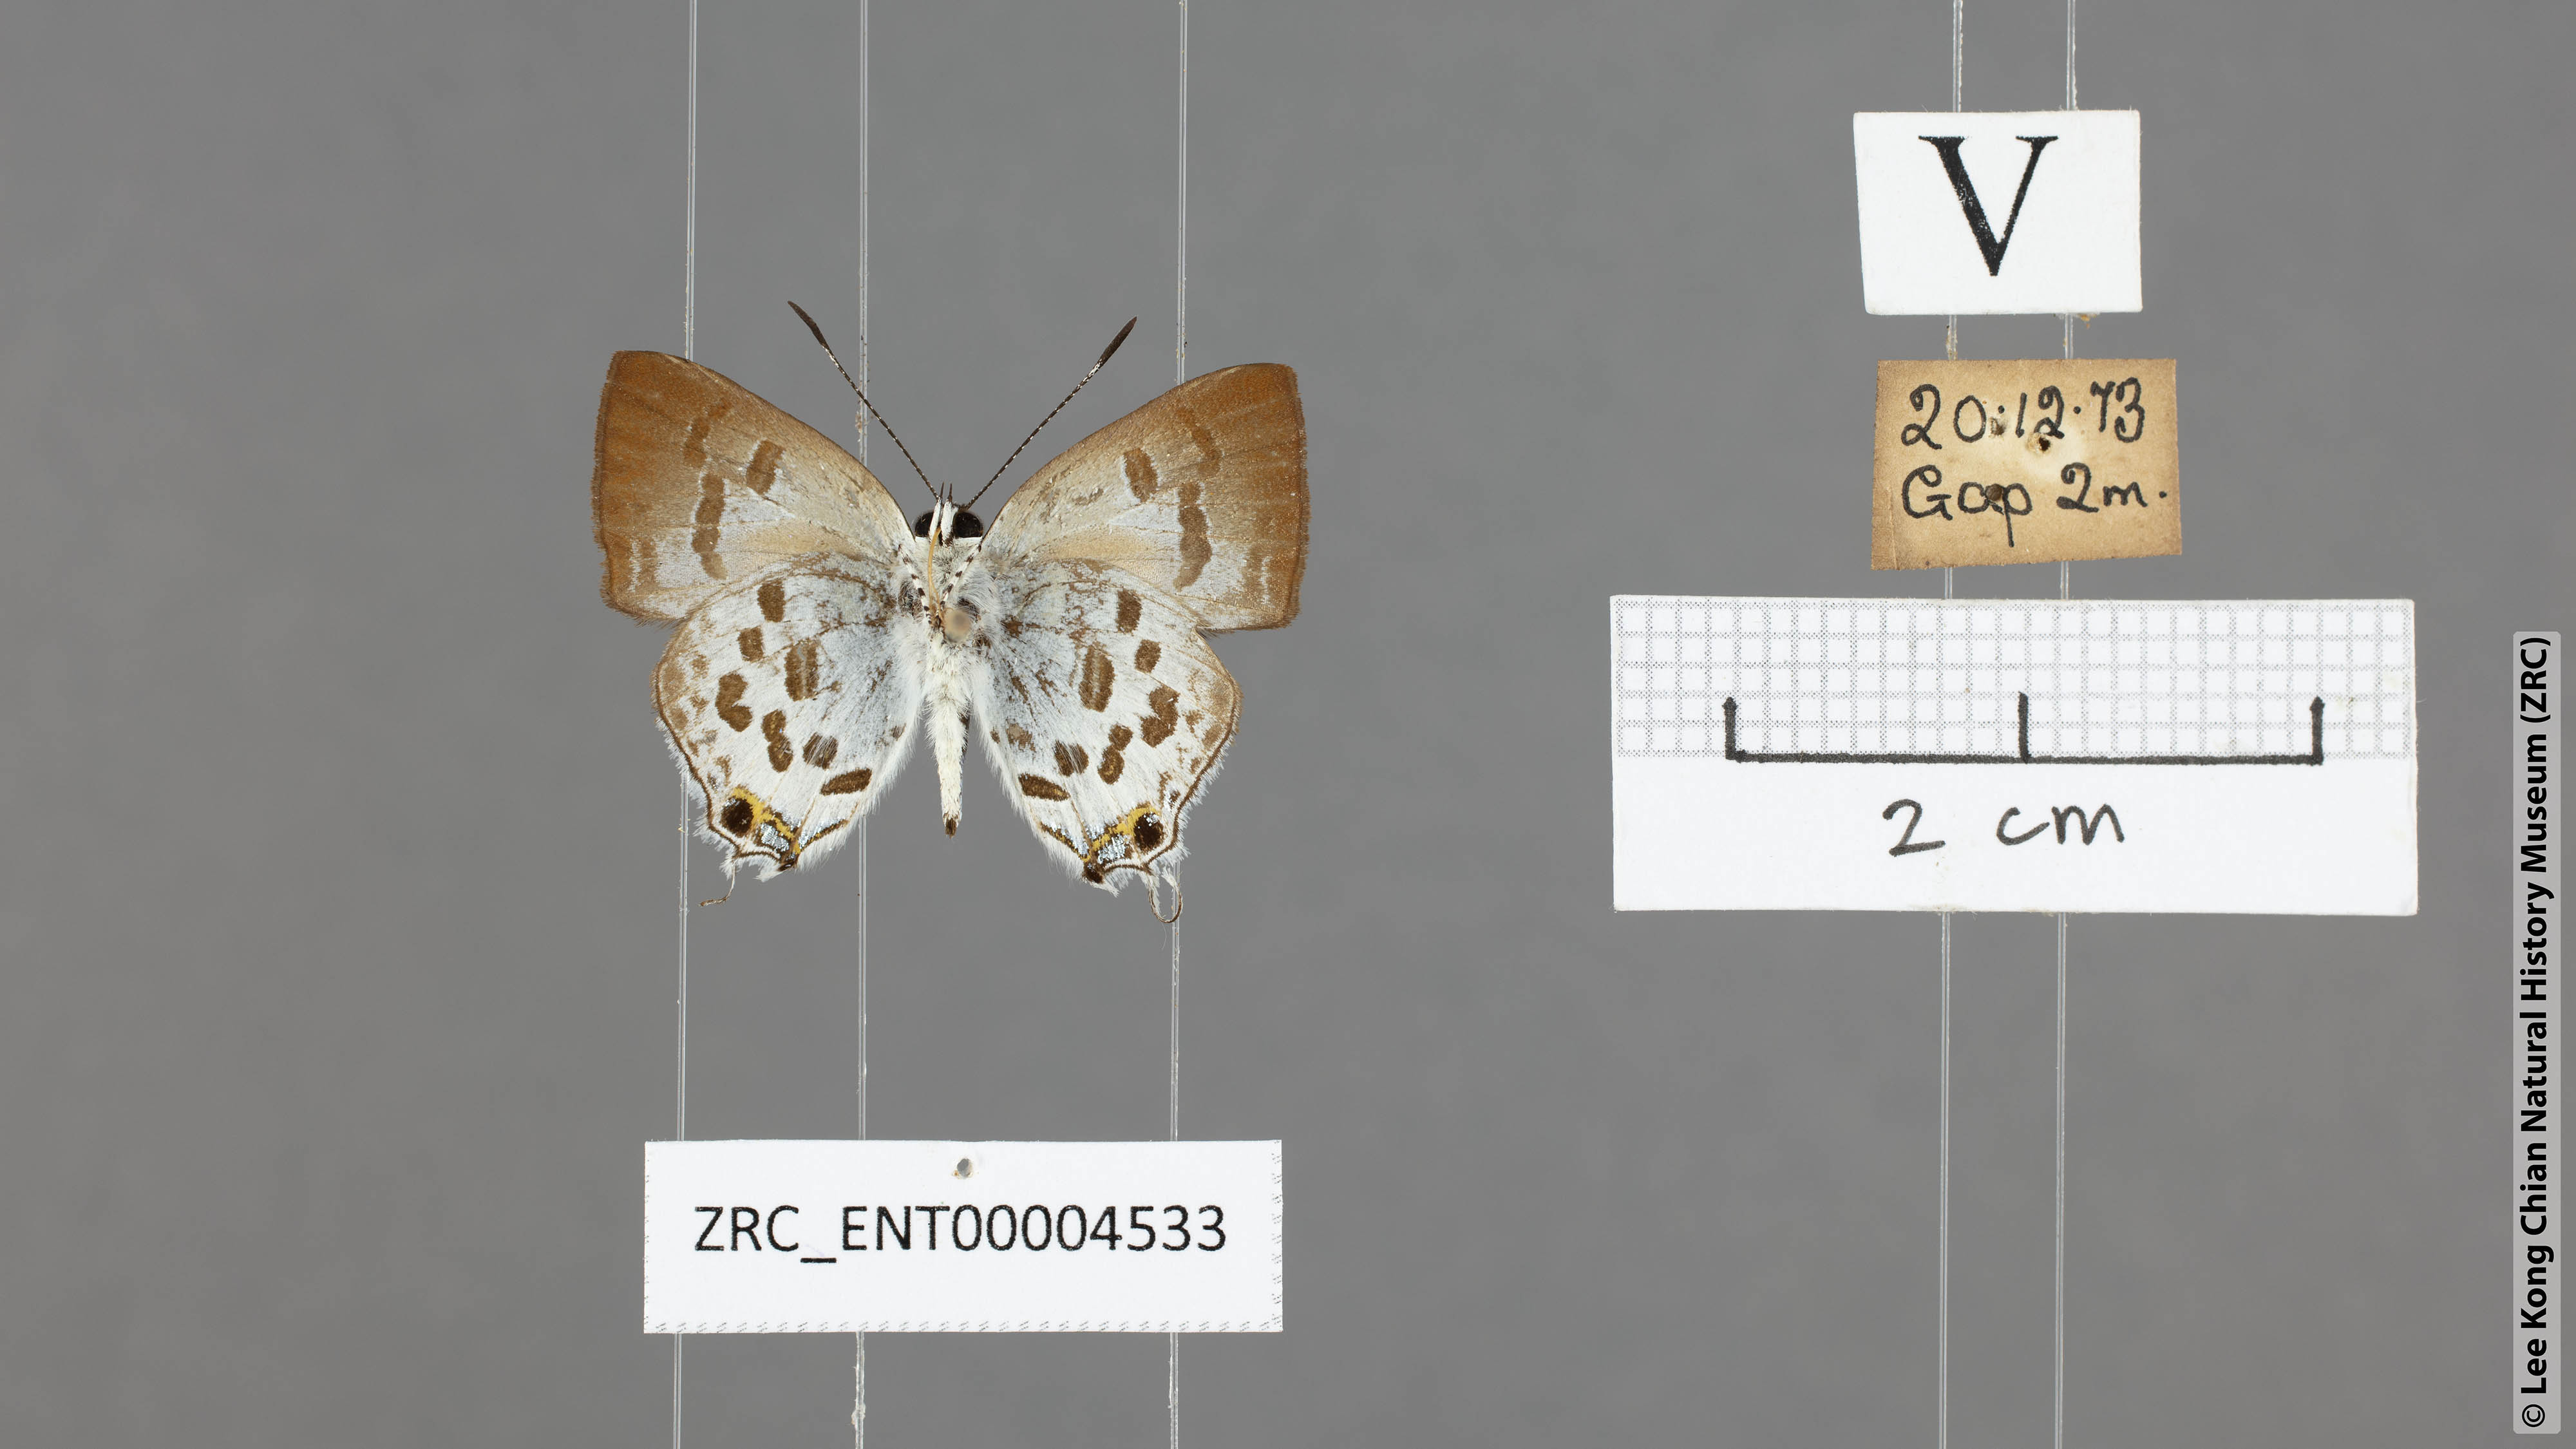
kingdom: Animalia
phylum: Arthropoda
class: Insecta
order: Lepidoptera
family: Lycaenidae
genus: Sinthusa
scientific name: Sinthusa malika
